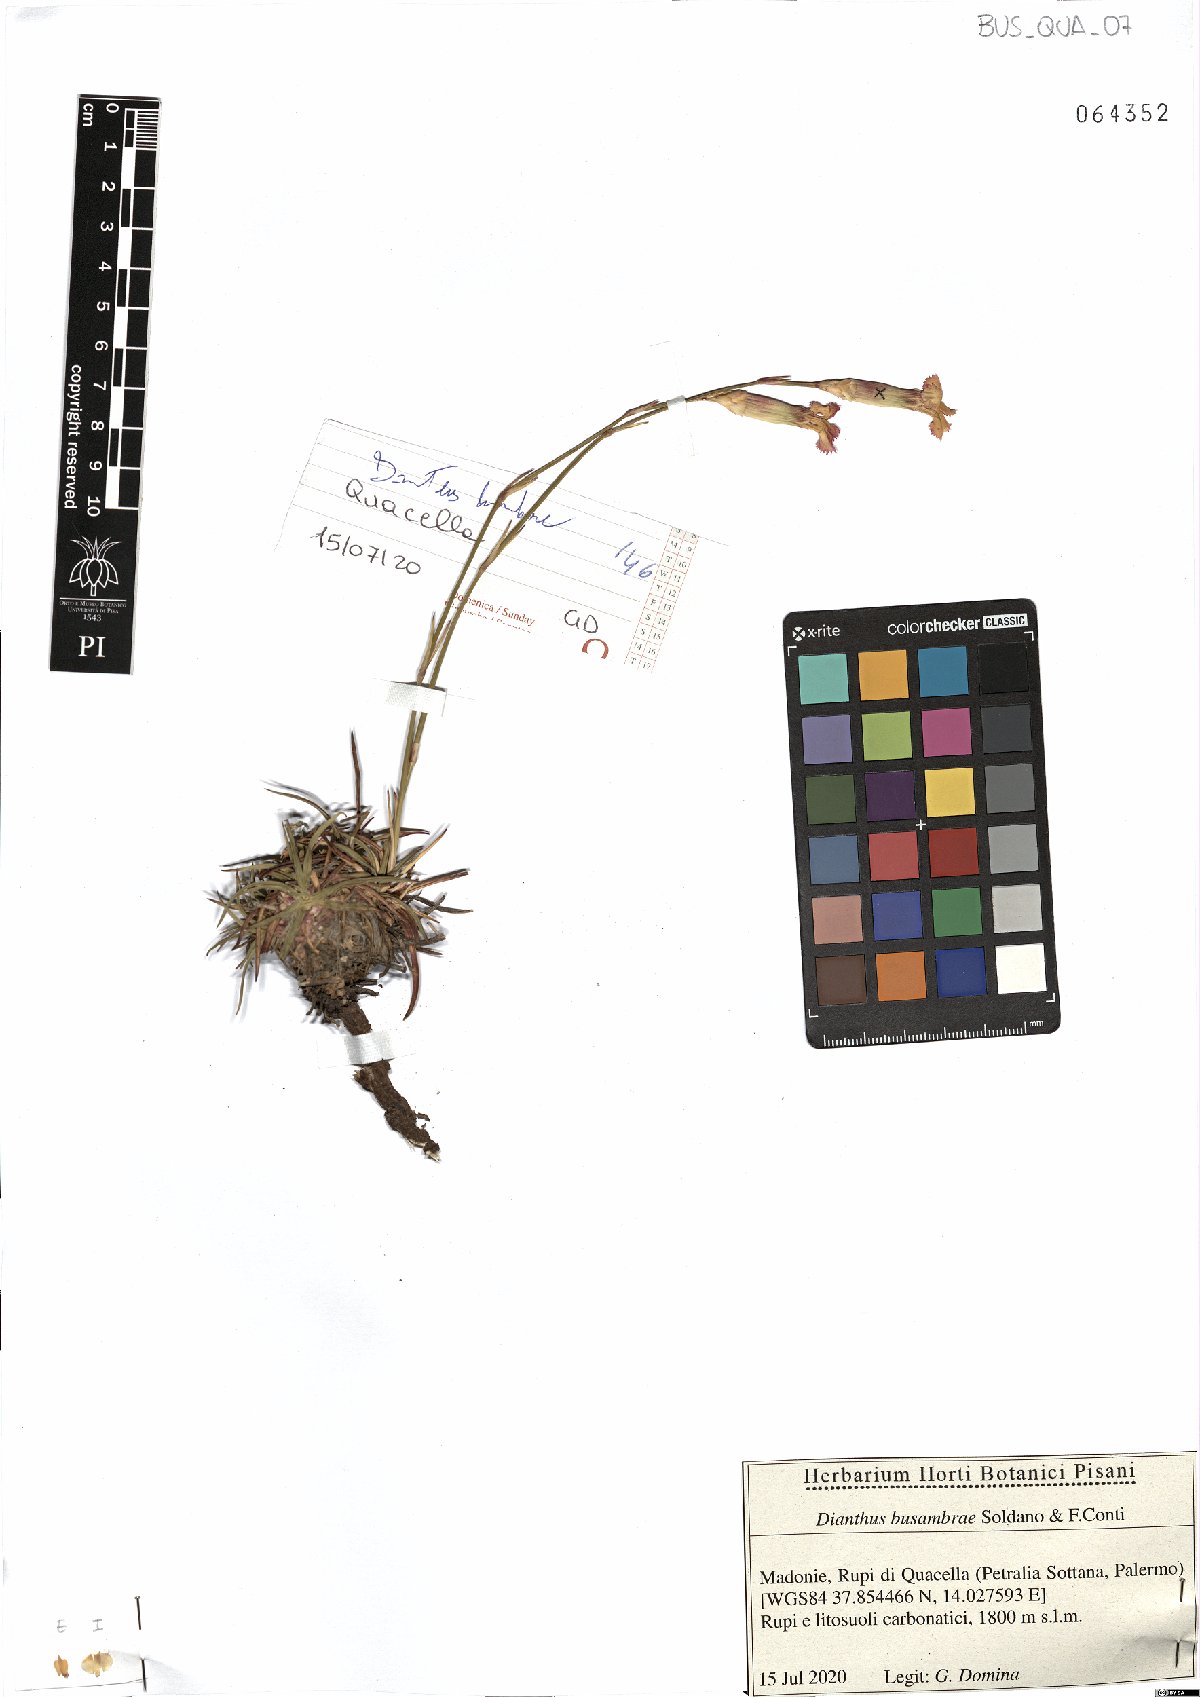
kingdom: Plantae
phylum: Tracheophyta
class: Magnoliopsida
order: Caryophyllales
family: Caryophyllaceae
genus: Dianthus
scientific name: Dianthus busambrae
